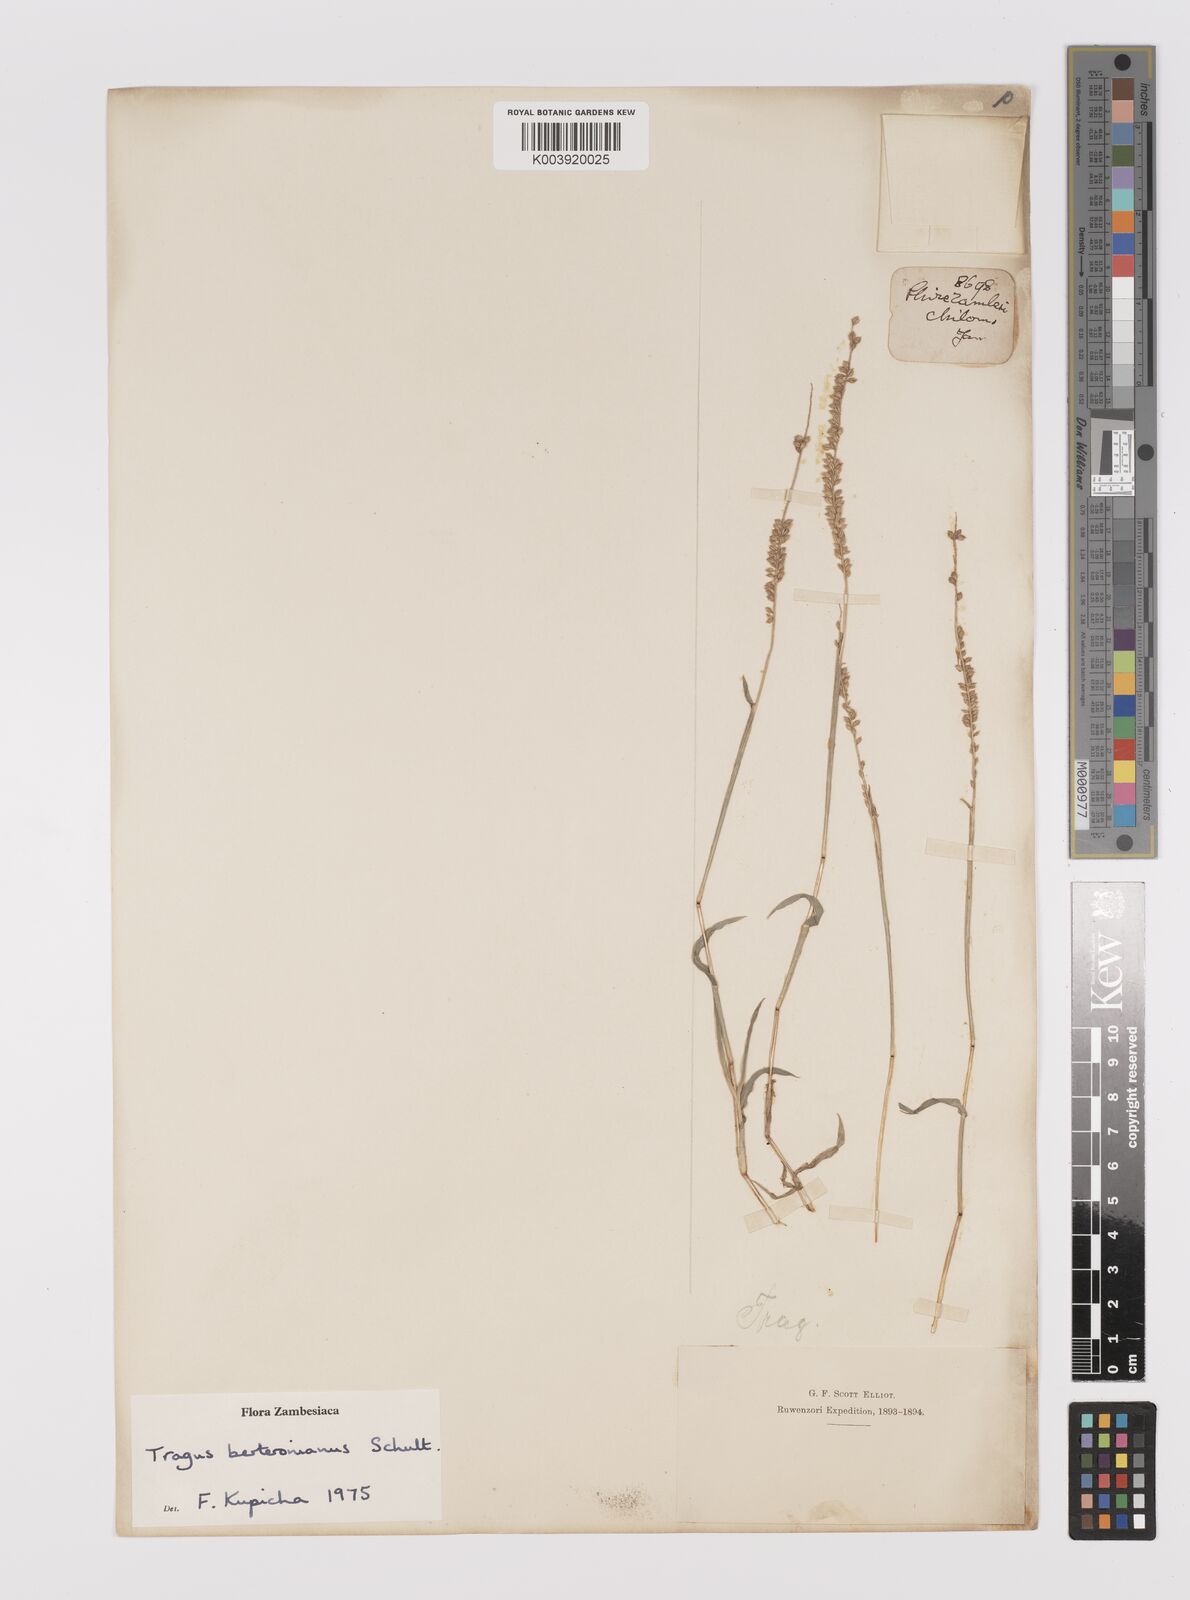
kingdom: Plantae
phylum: Tracheophyta
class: Liliopsida
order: Poales
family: Poaceae
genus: Tragus
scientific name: Tragus berteronianus
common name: African bur-grass
